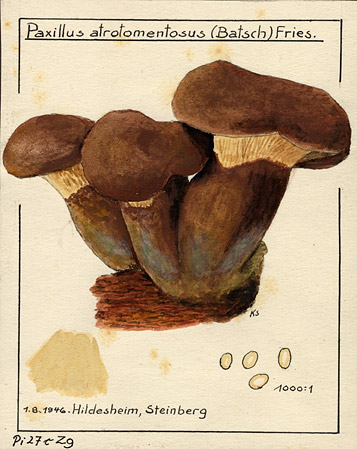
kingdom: Fungi
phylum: Basidiomycota
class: Agaricomycetes
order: Boletales
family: Tapinellaceae
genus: Tapinella
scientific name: Tapinella atrotomentosa
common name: Velvet rollrim
